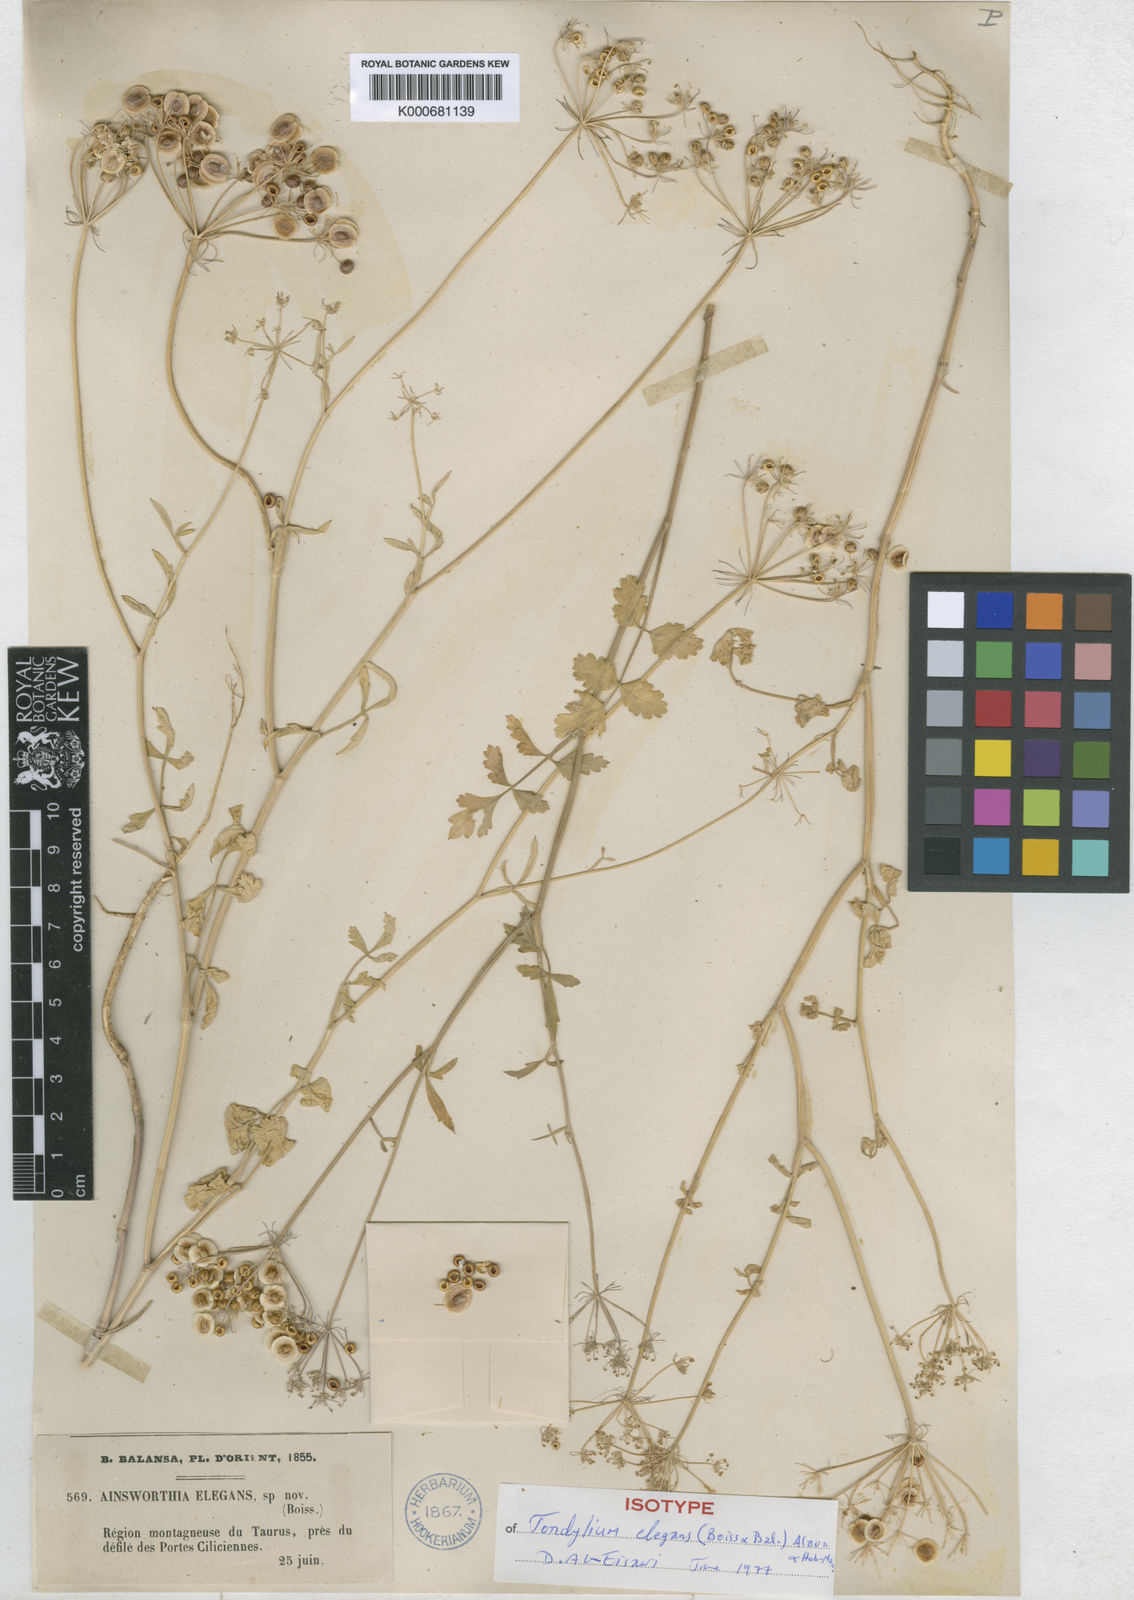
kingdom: Plantae
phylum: Tracheophyta
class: Magnoliopsida
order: Apiales
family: Apiaceae
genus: Tordylium
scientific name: Tordylium
